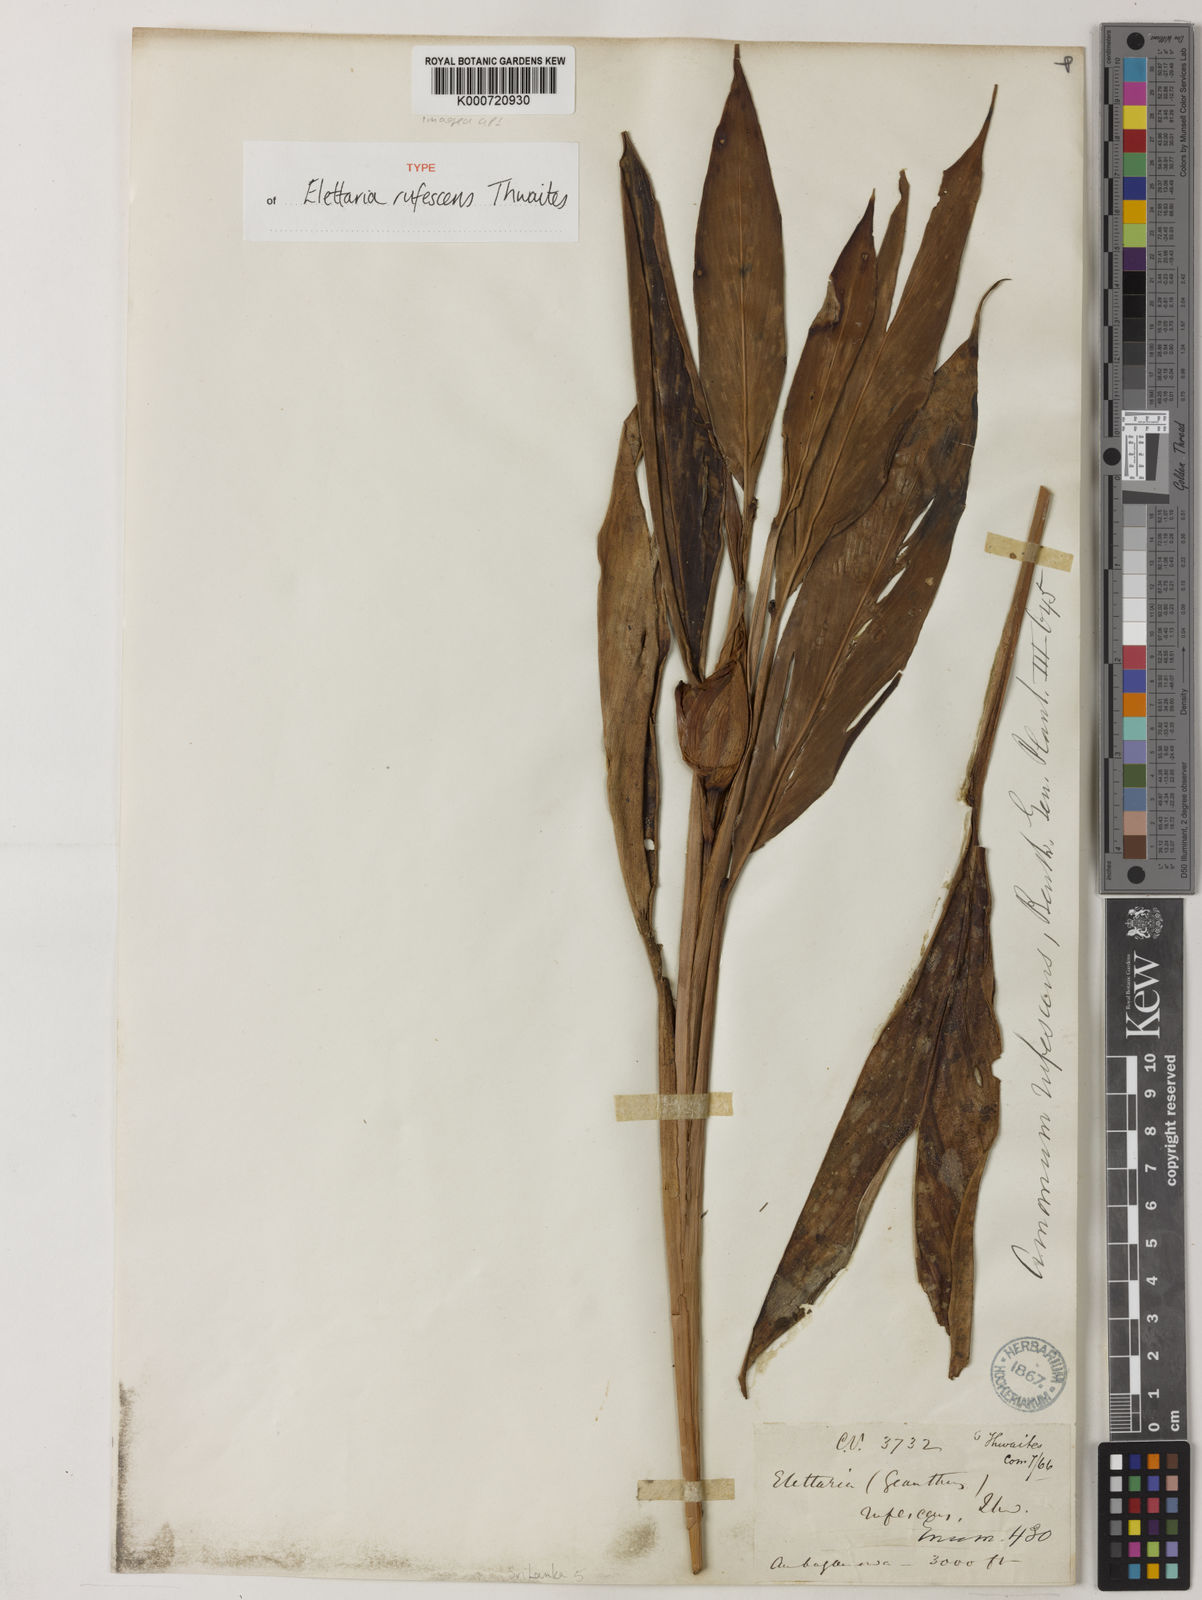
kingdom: Plantae
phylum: Tracheophyta
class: Liliopsida
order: Zingiberales
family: Zingiberaceae
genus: Alpinia
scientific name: Alpinia rufescens
